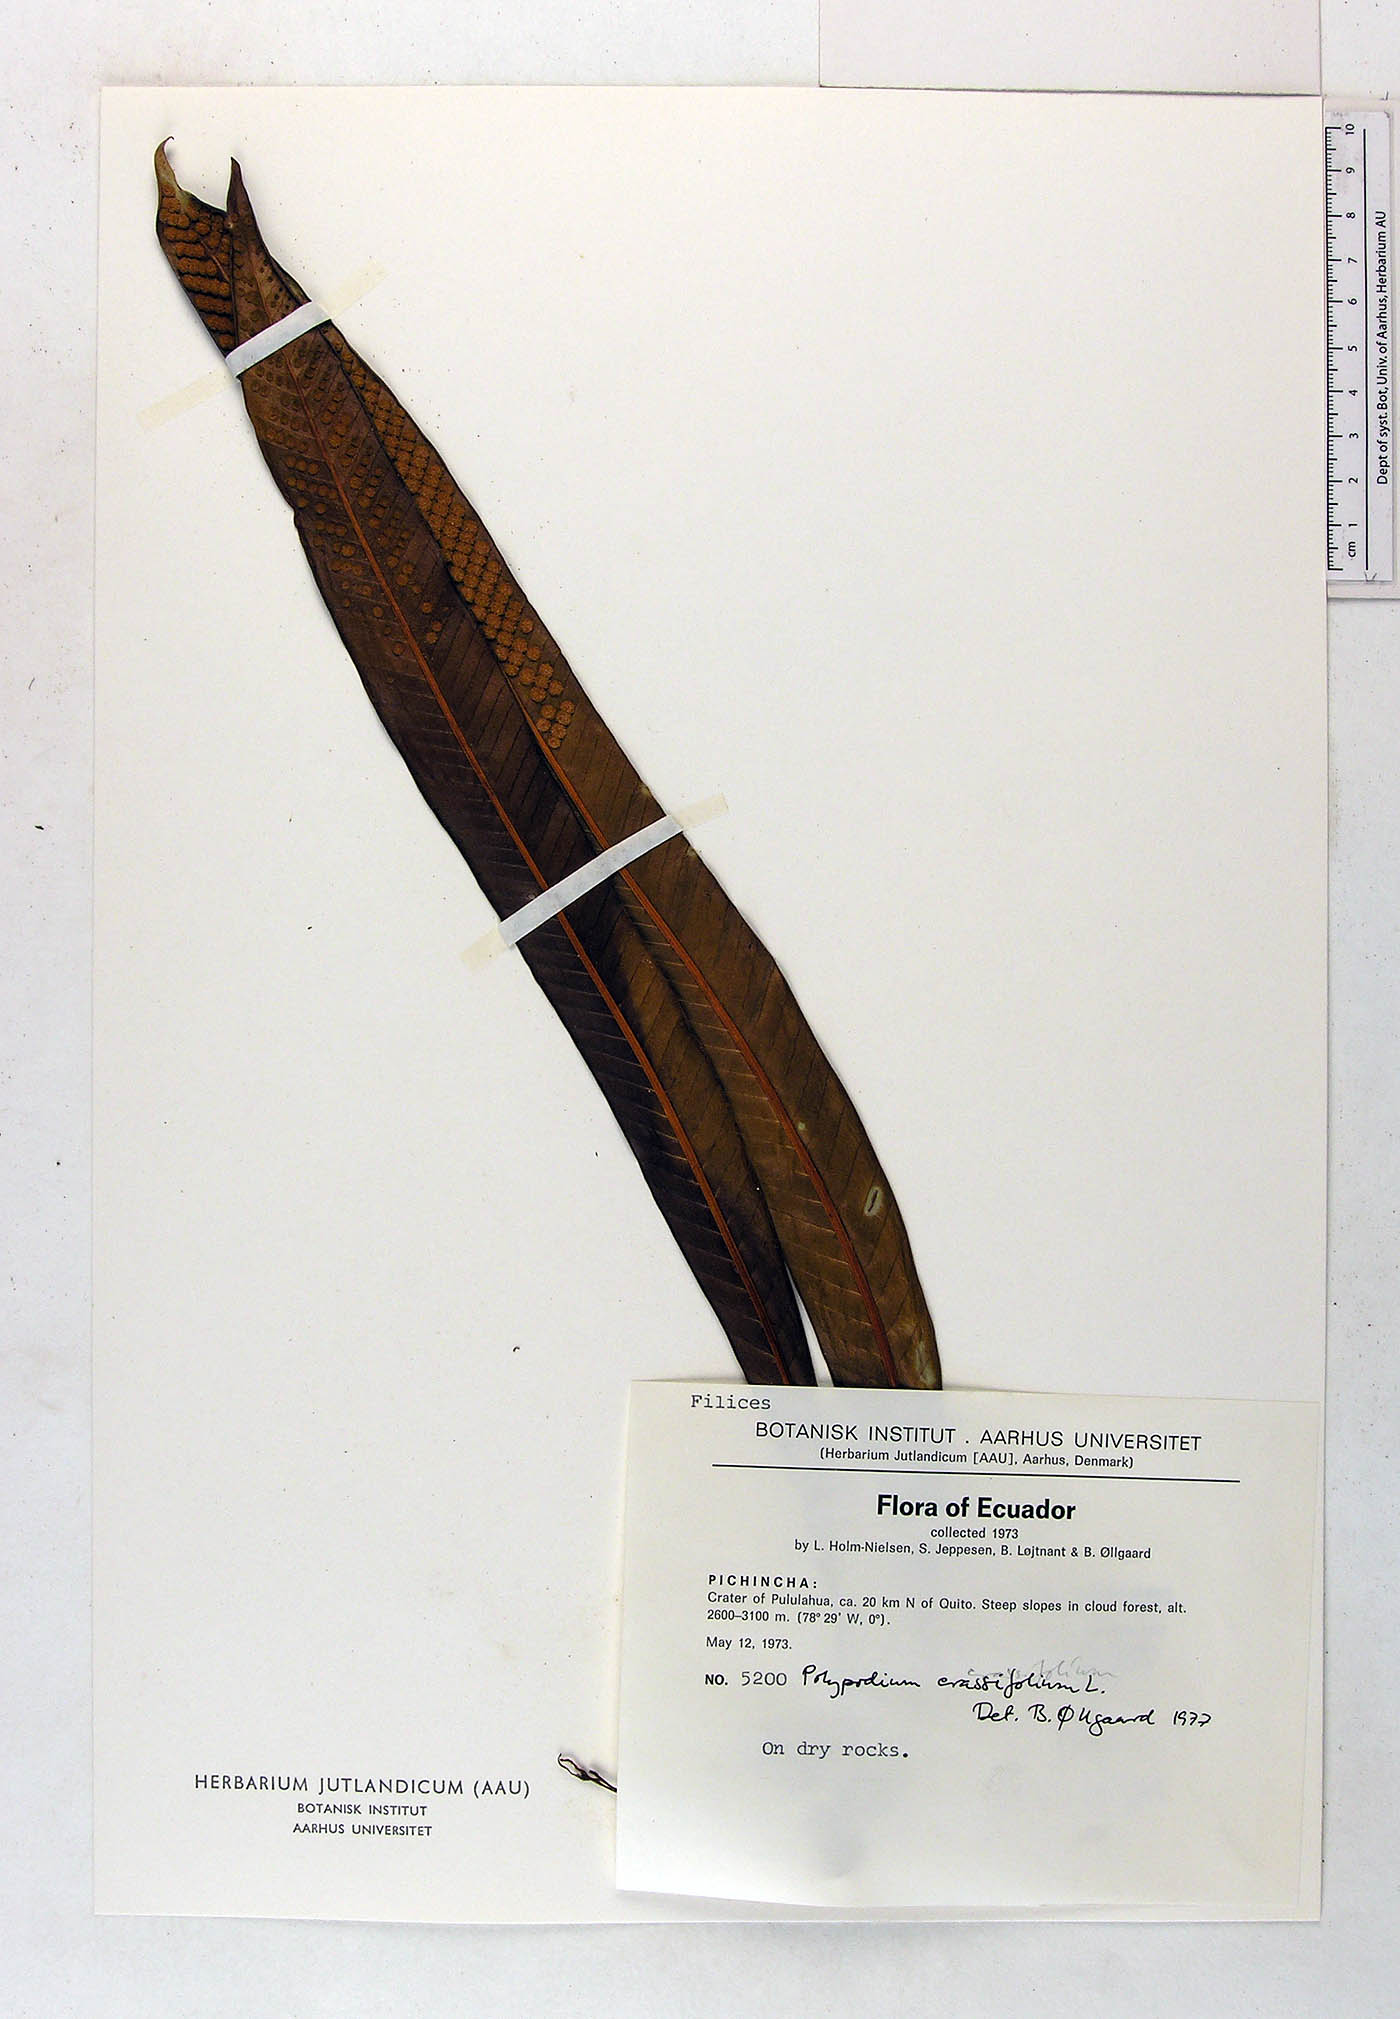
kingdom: Plantae
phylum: Tracheophyta
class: Polypodiopsida
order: Polypodiales
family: Polypodiaceae
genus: Niphidium
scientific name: Niphidium crassifolium
